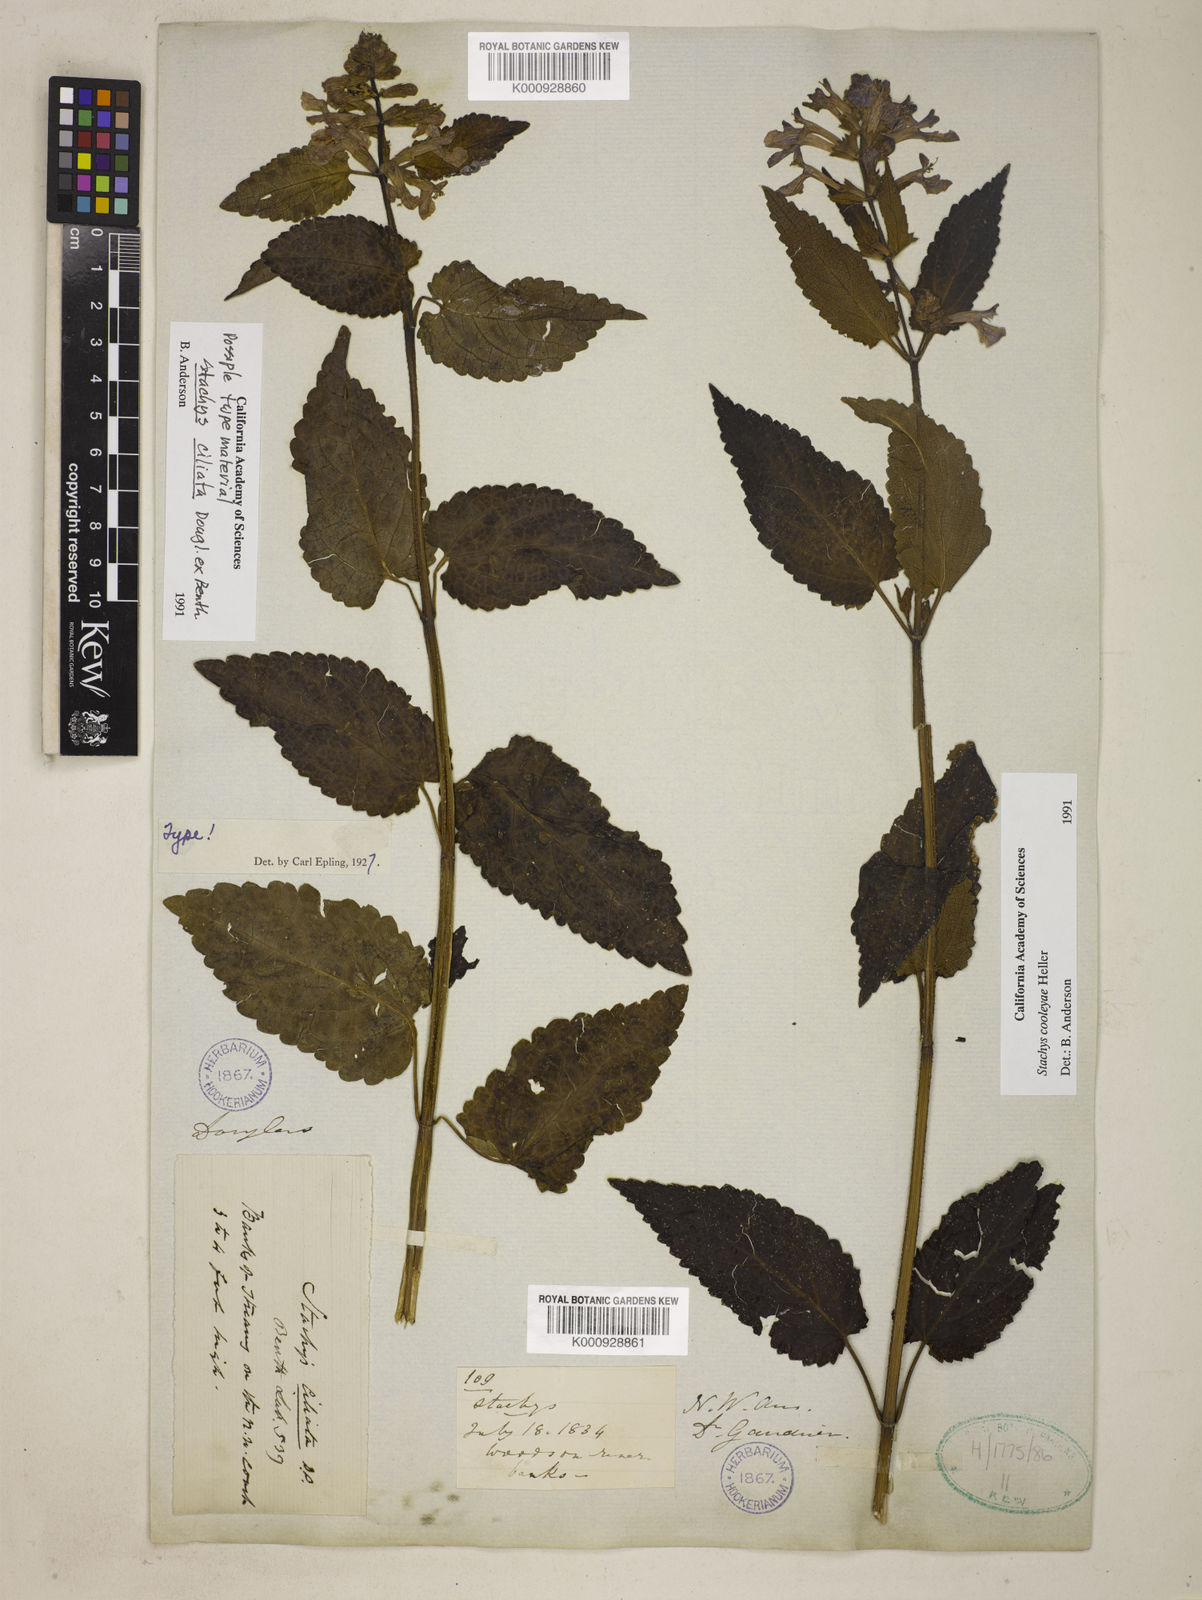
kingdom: Plantae
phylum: Tracheophyta
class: Magnoliopsida
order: Lamiales
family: Lamiaceae
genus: Stachys
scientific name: Stachys mexicana
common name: Mexican hedge-nettle
